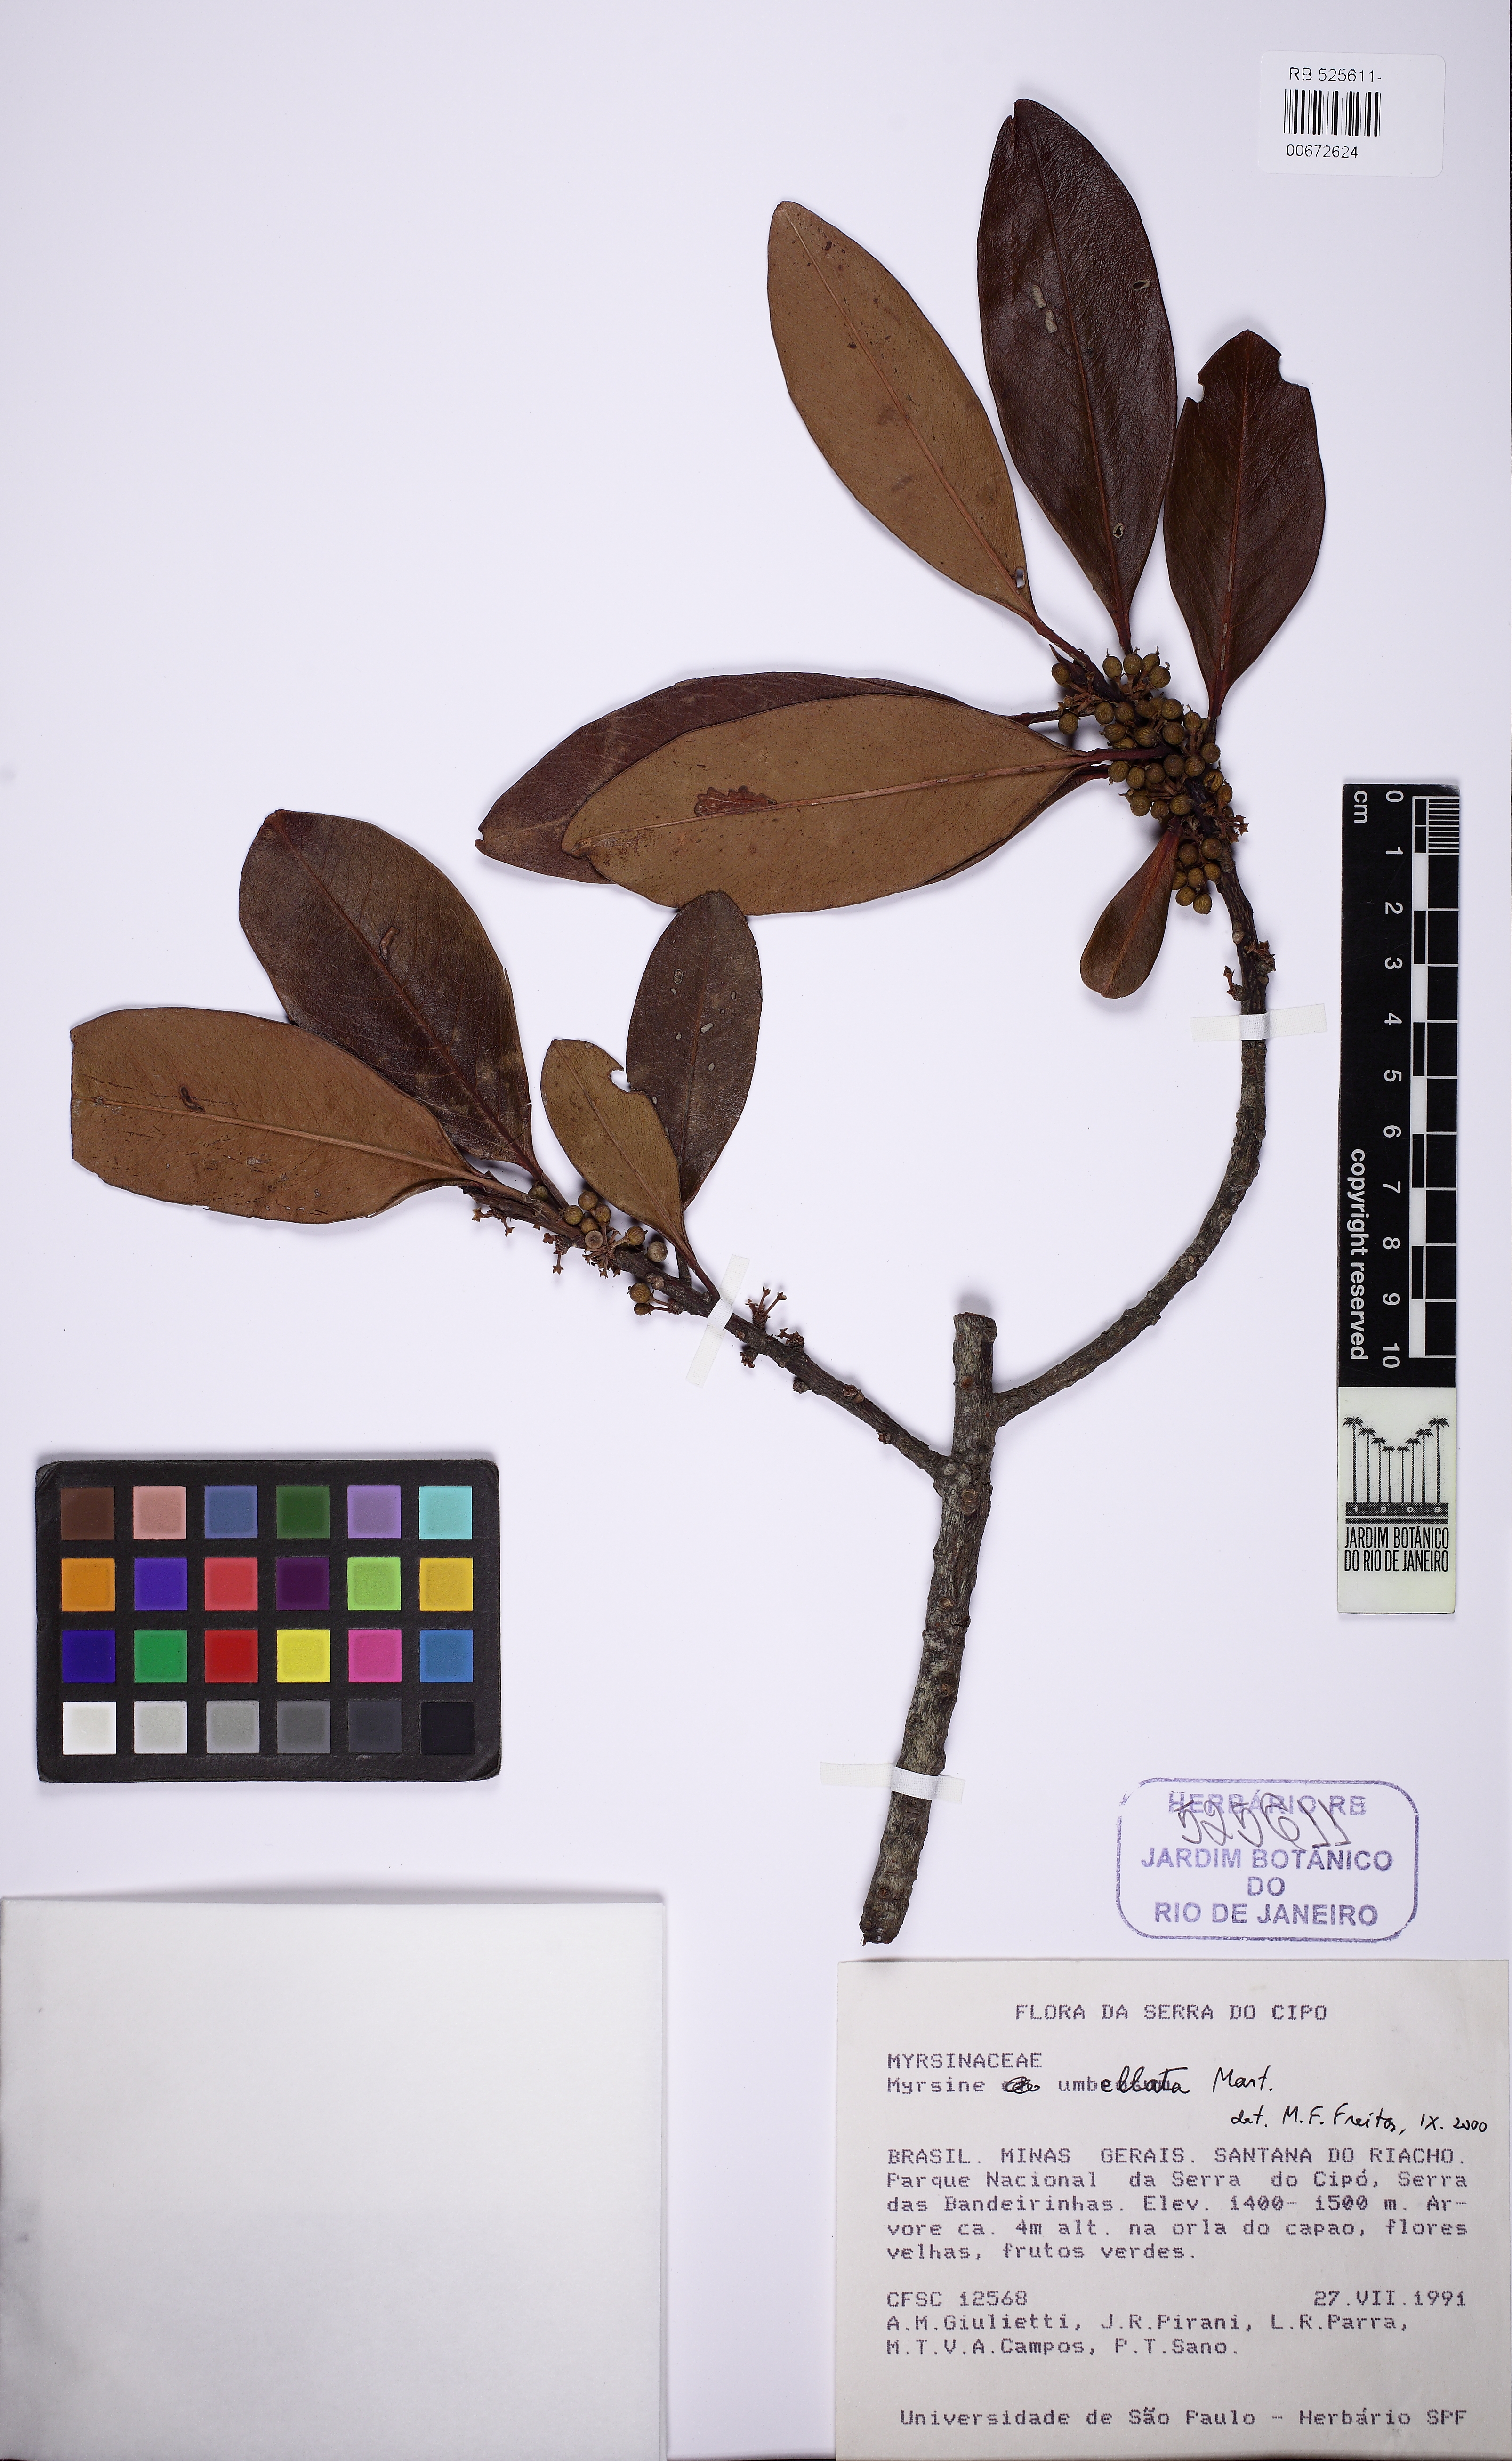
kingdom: Plantae
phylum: Tracheophyta
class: Magnoliopsida
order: Ericales
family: Primulaceae
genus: Myrsine
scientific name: Myrsine umbellata
